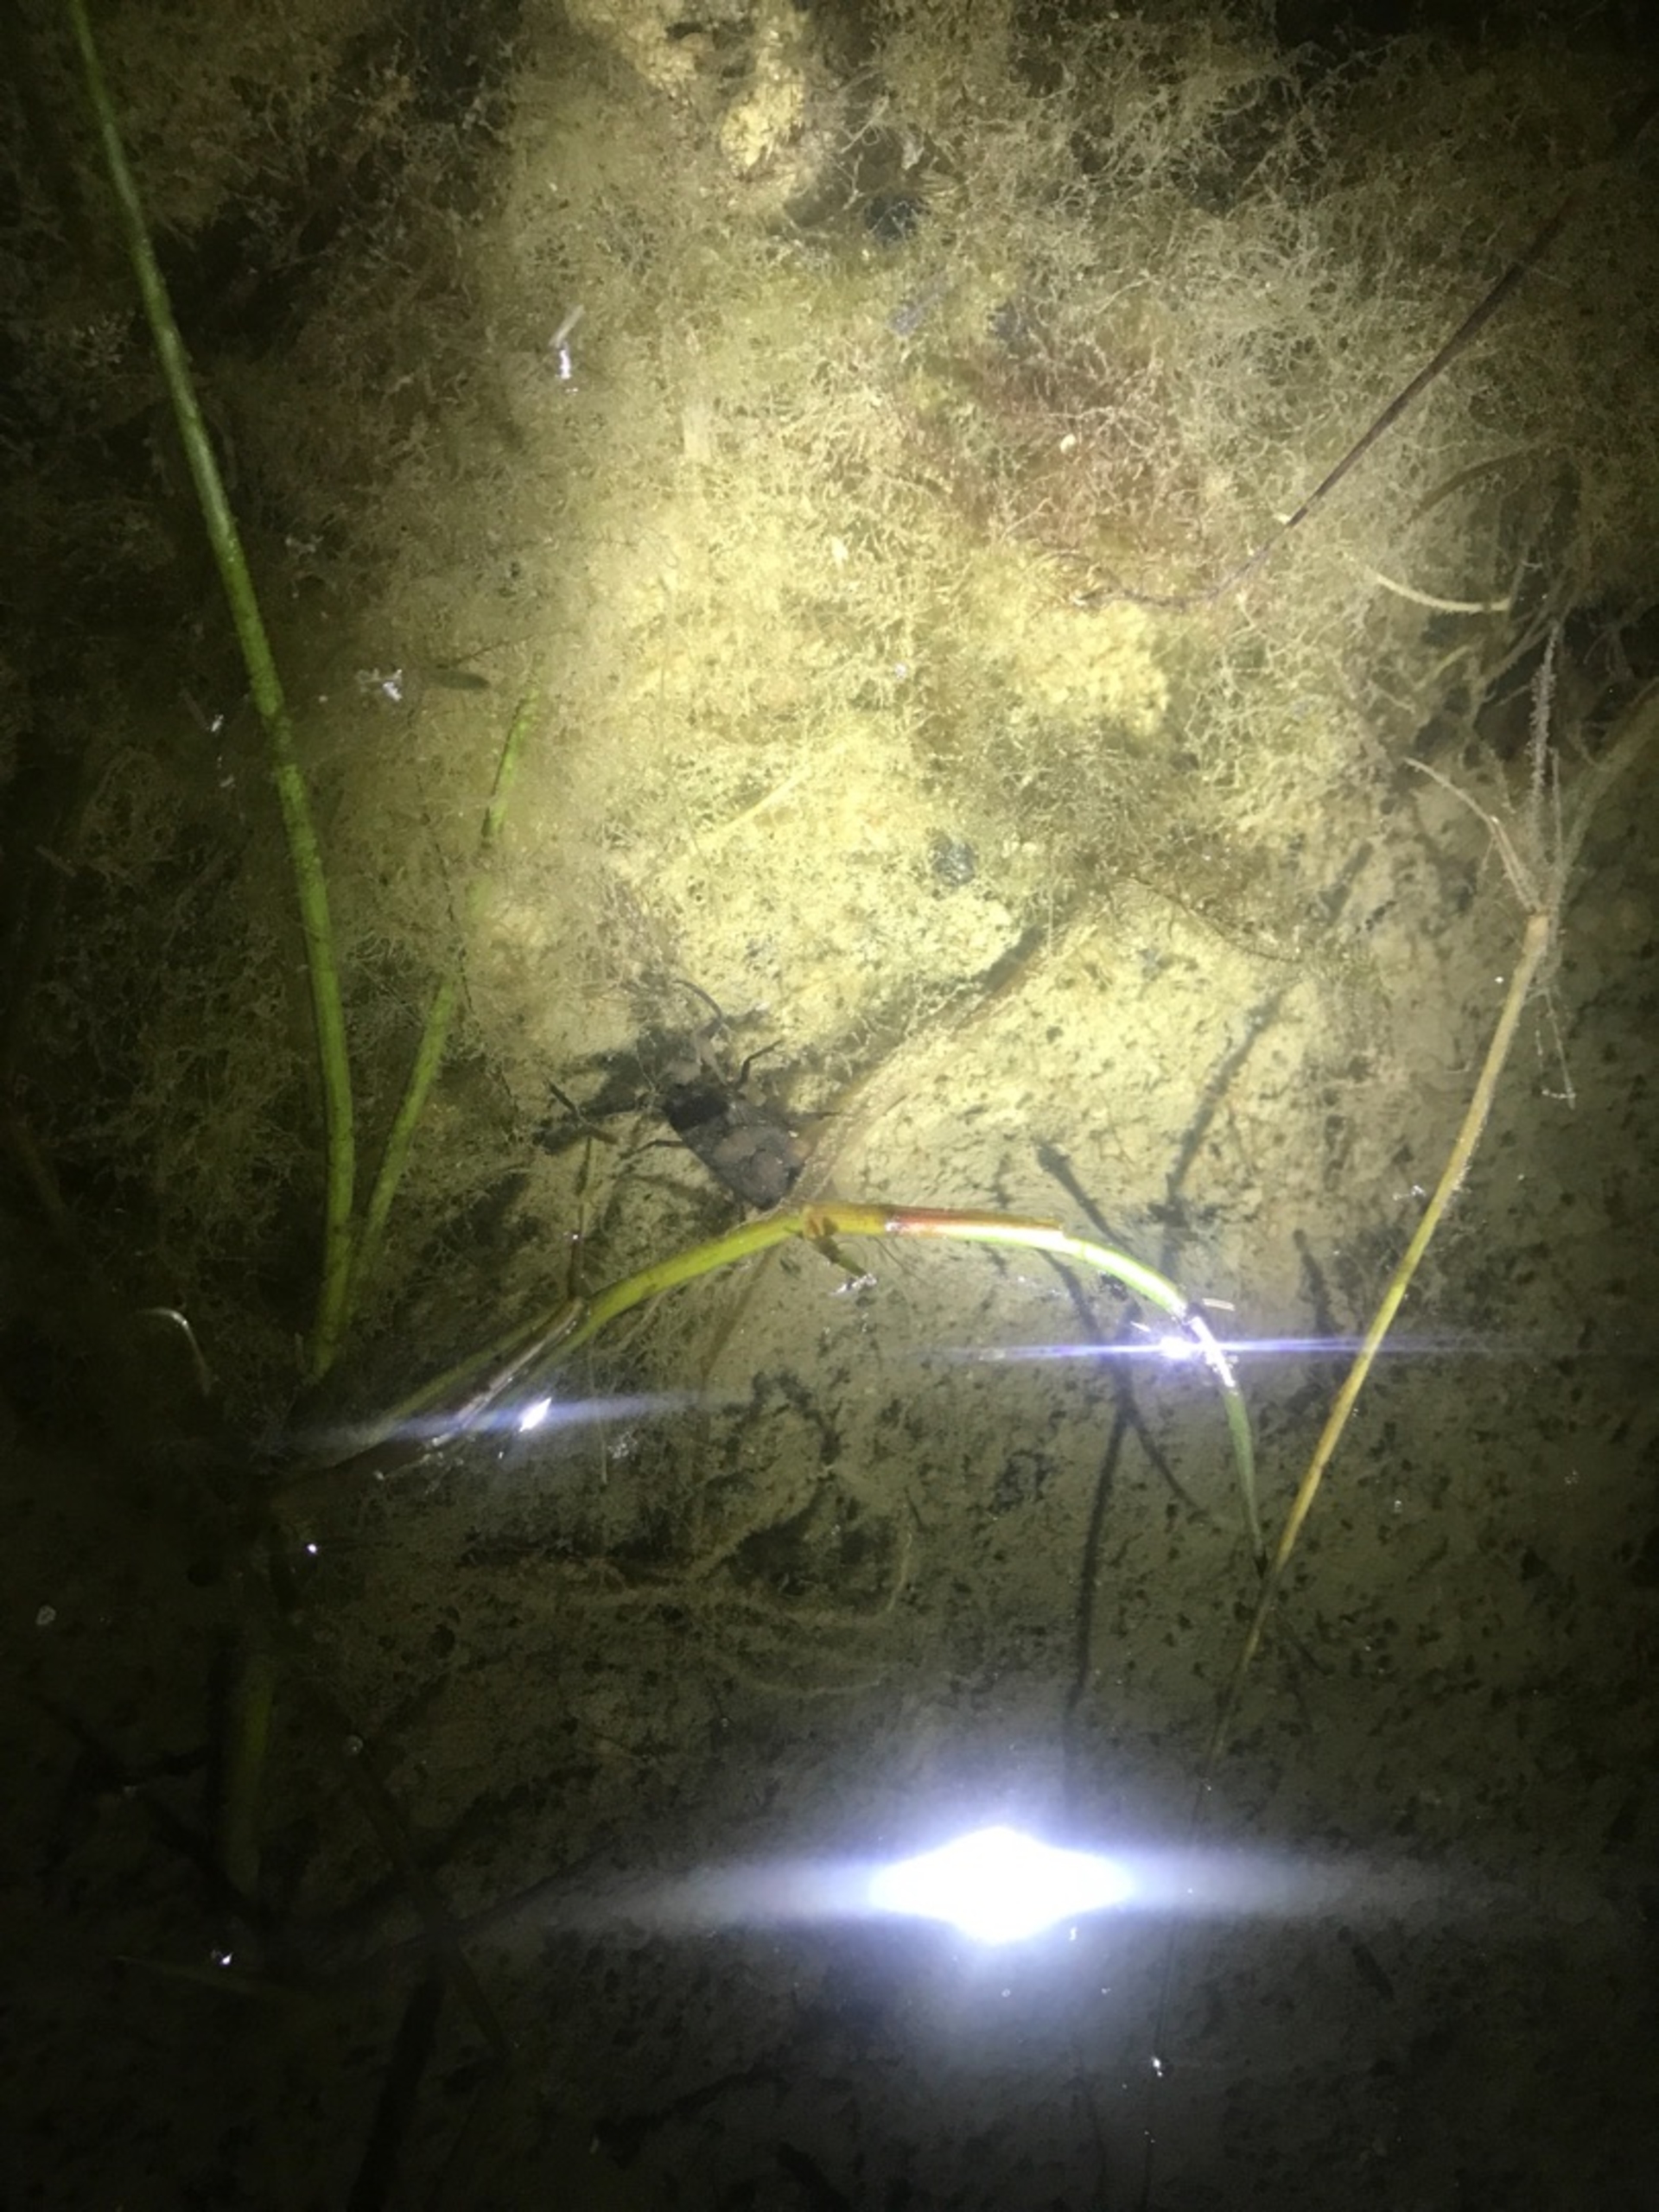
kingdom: Animalia
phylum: Arthropoda
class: Insecta
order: Hemiptera
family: Nepidae
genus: Nepa
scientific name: Nepa cinerea
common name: Skorpiontæge
